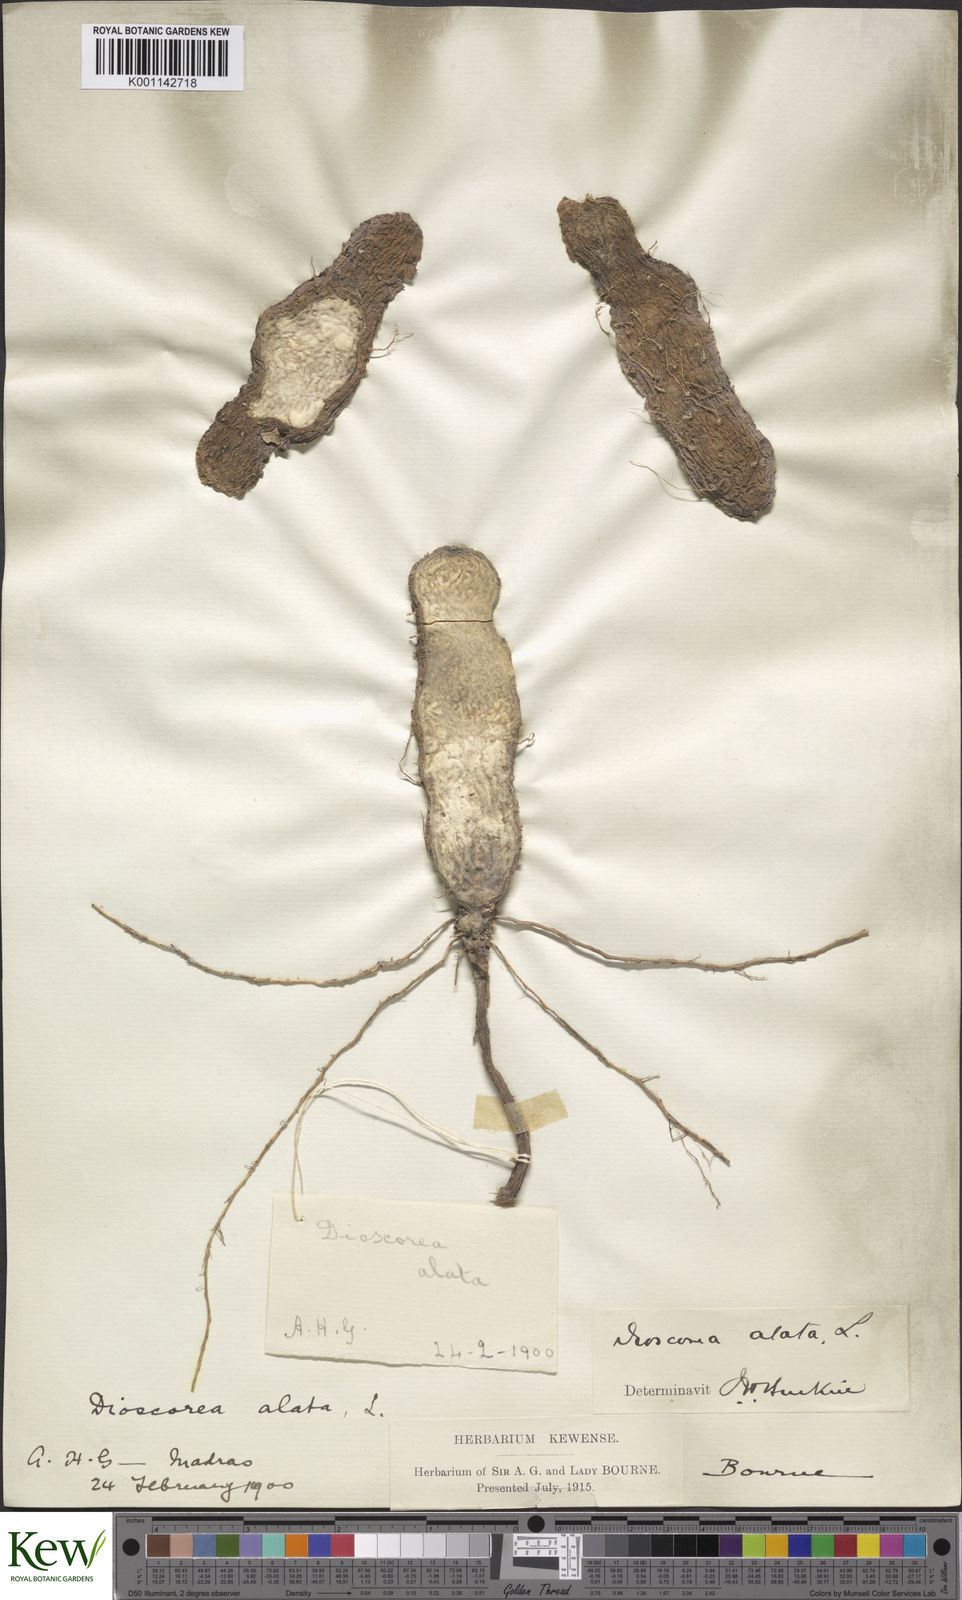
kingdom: Plantae
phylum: Tracheophyta
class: Liliopsida
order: Dioscoreales
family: Dioscoreaceae
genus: Dioscorea
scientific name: Dioscorea alata
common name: Water yam
